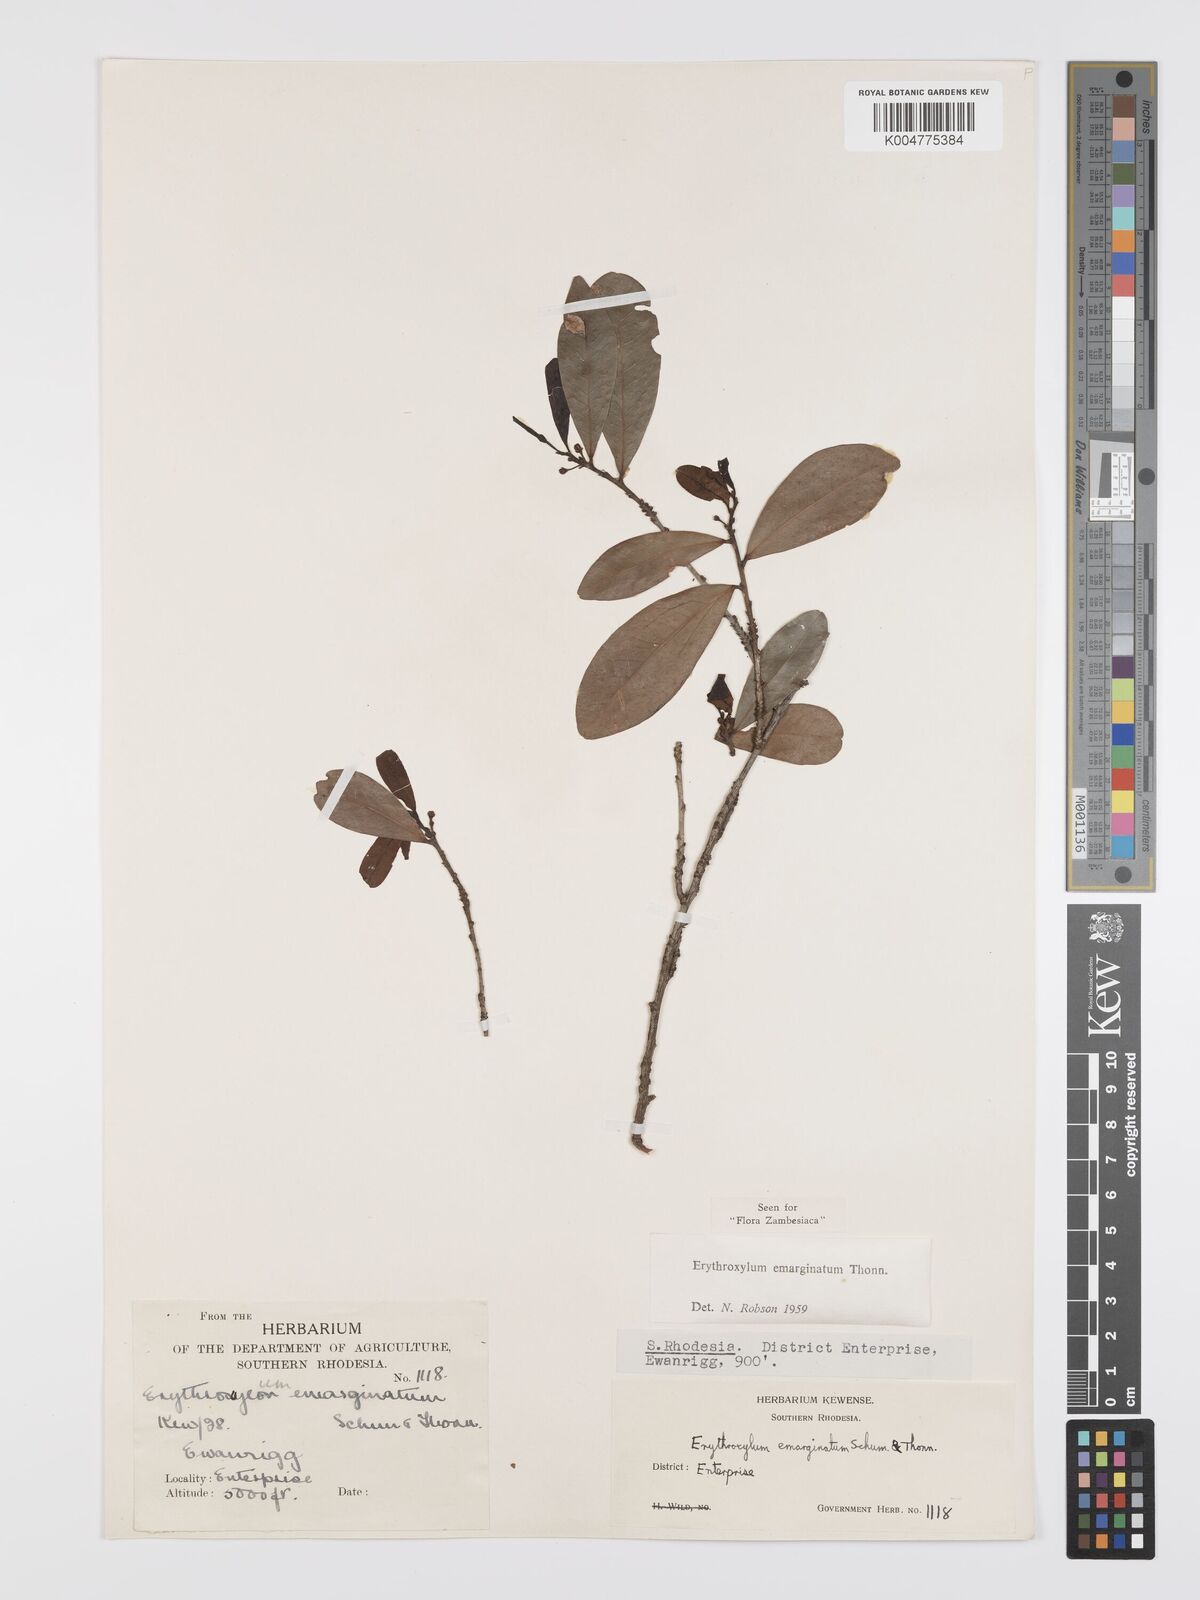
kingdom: Plantae
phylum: Tracheophyta
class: Magnoliopsida
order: Malpighiales
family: Erythroxylaceae
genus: Erythroxylum
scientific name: Erythroxylum emarginatum
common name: African coca-tree
